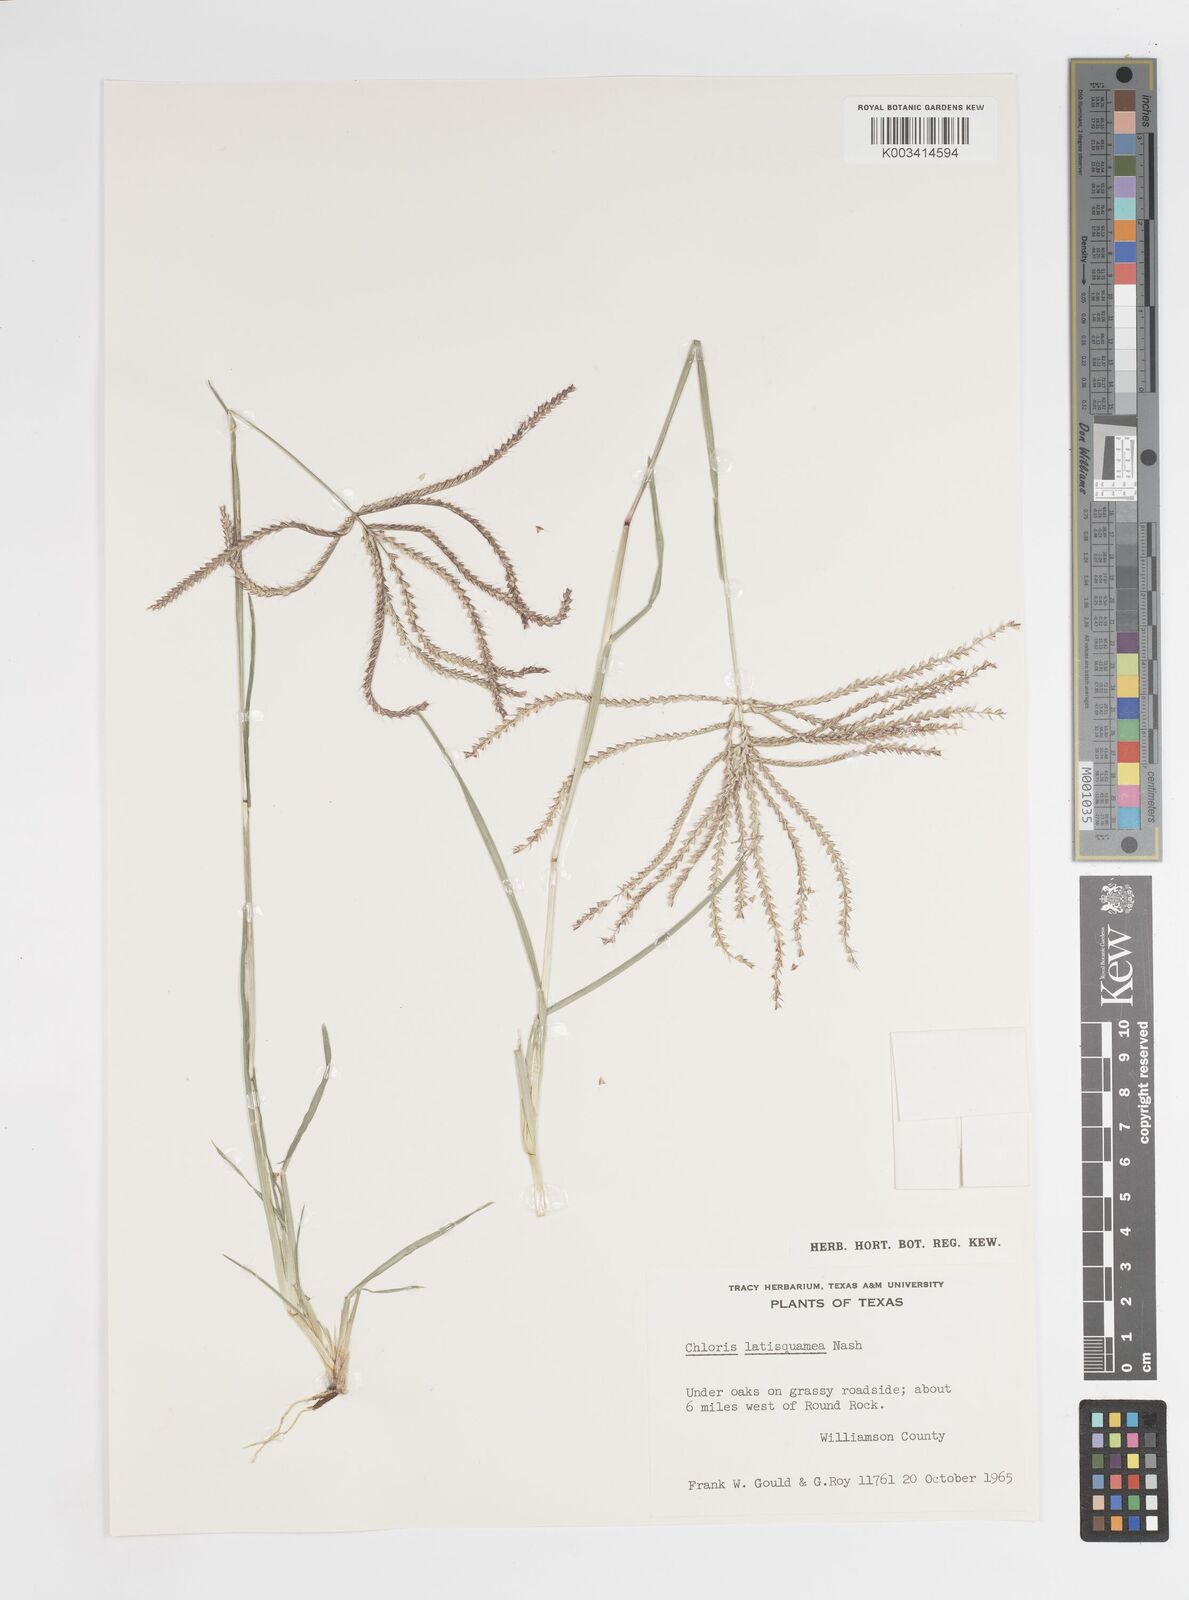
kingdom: Plantae
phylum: Tracheophyta
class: Liliopsida
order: Poales
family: Poaceae
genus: Chloris
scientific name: Chloris subdolichostachya
